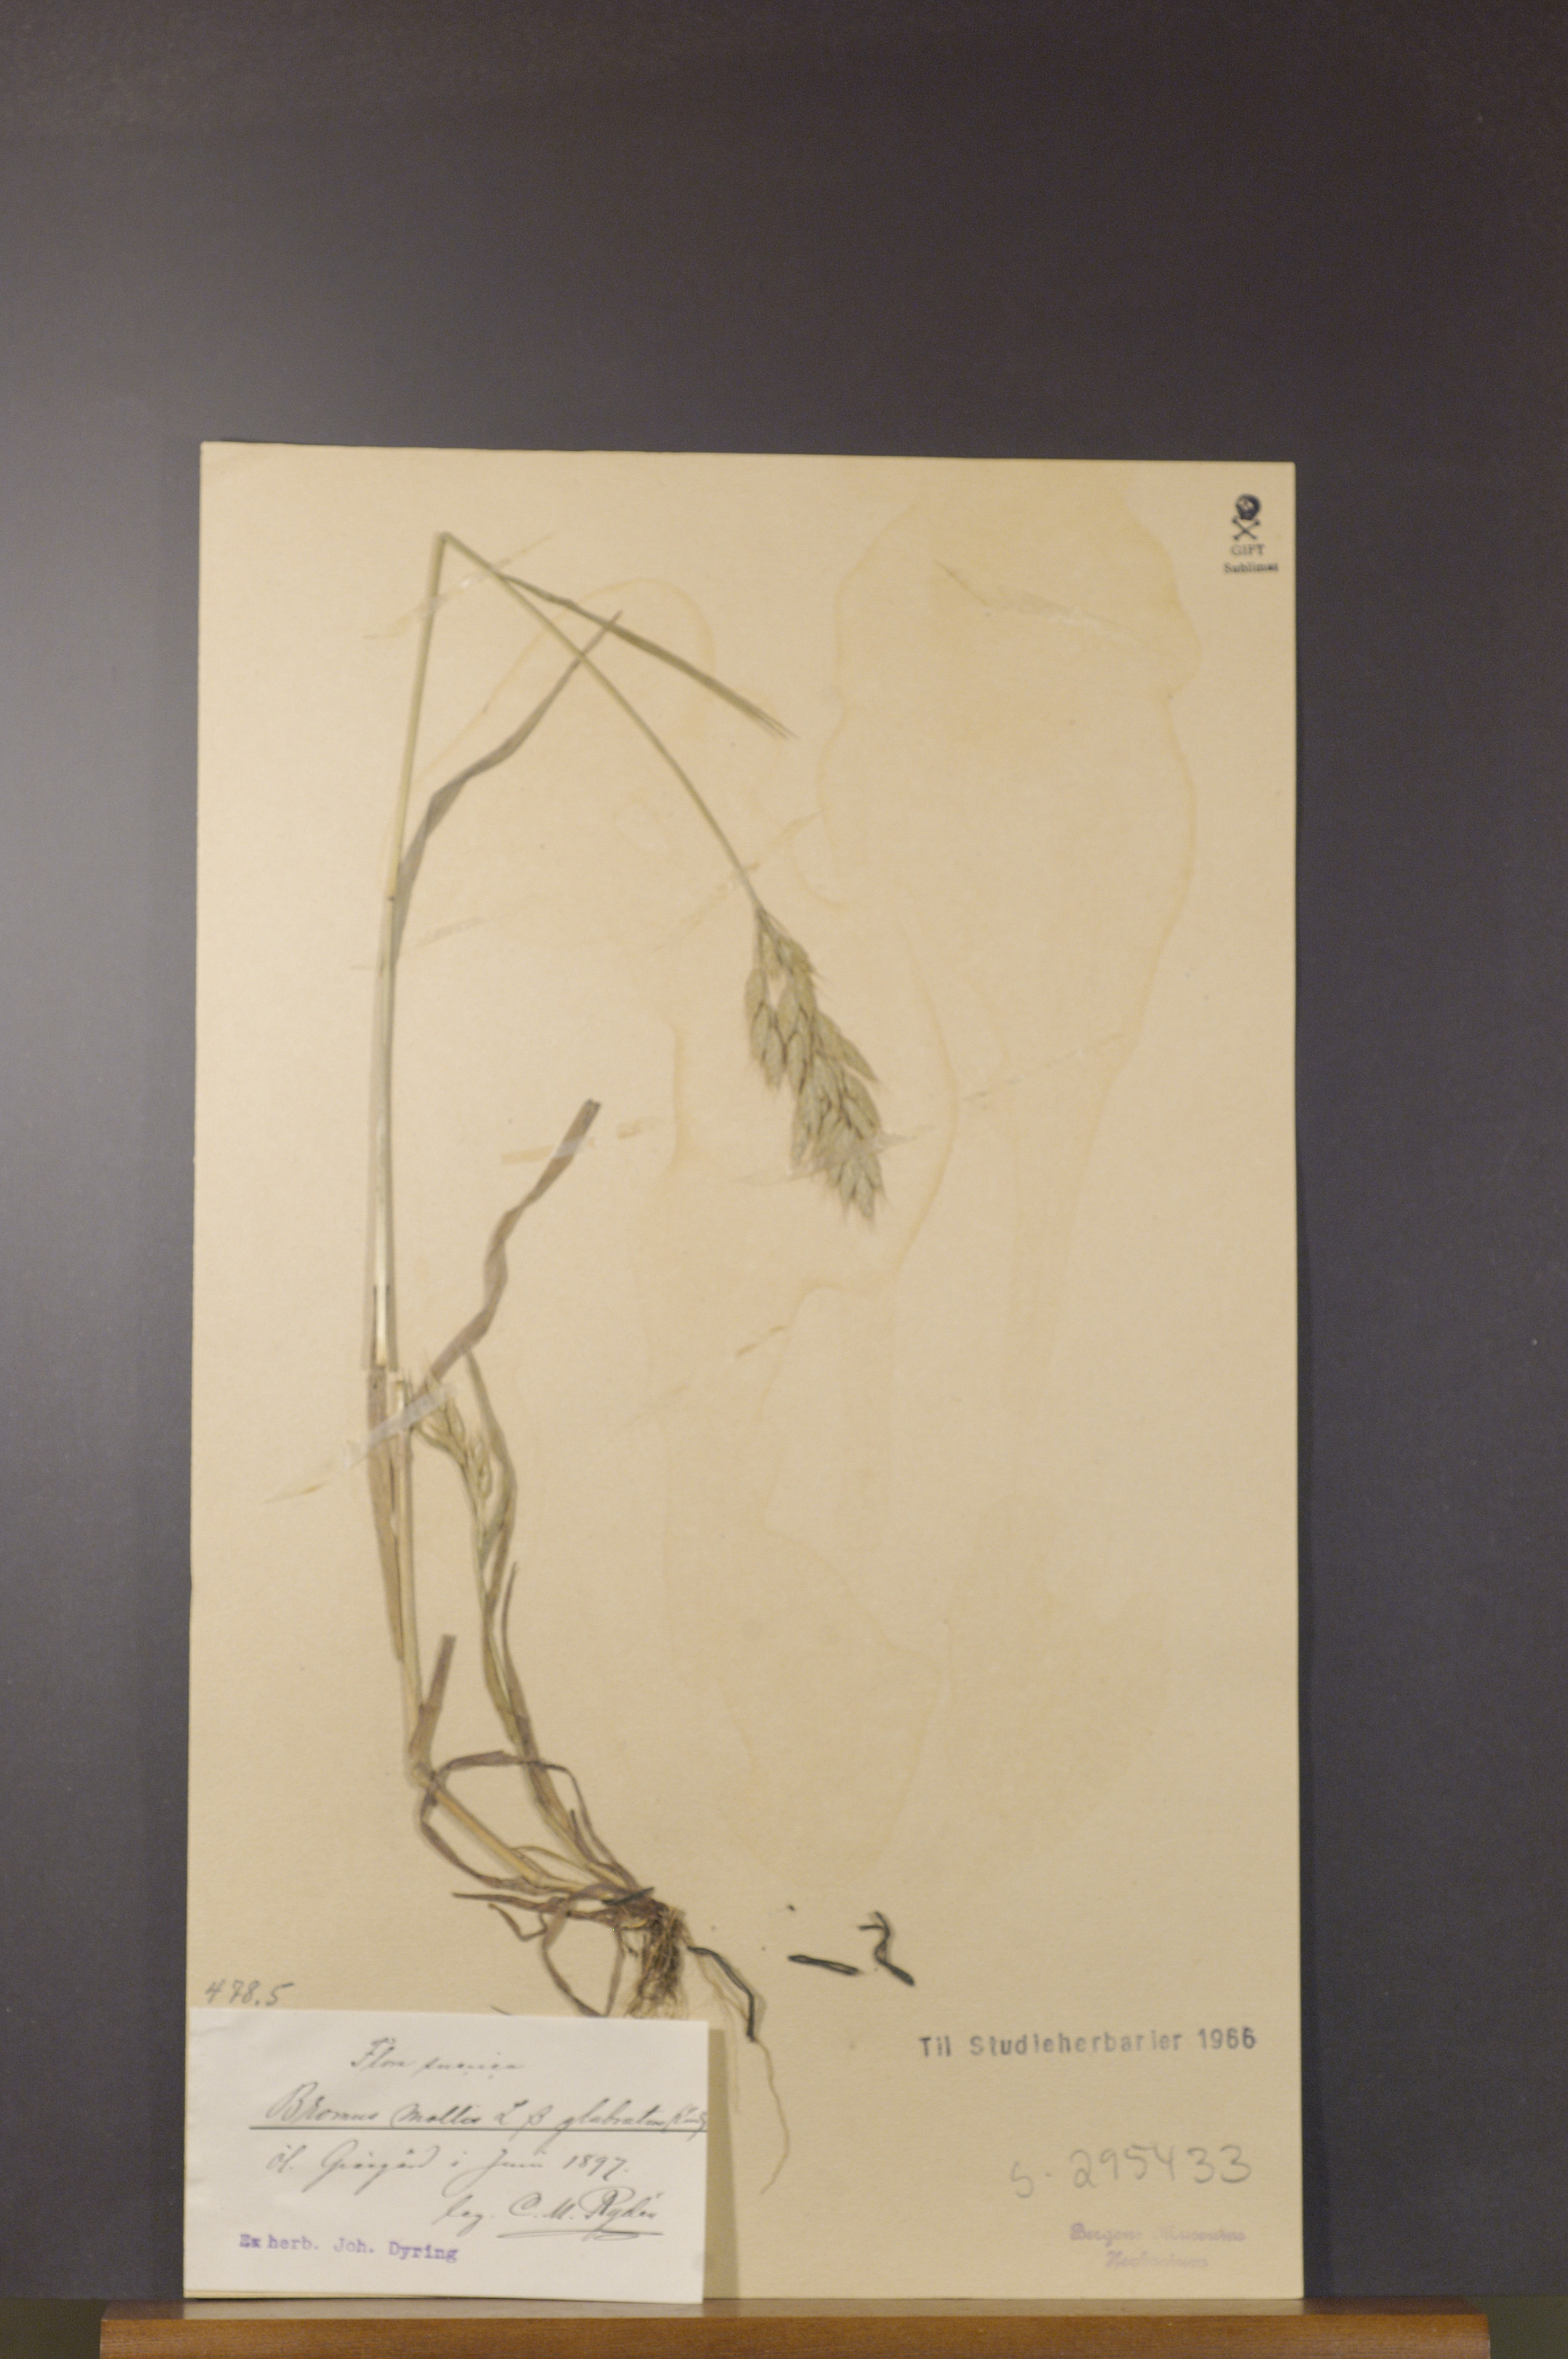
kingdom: Plantae
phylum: Tracheophyta
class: Liliopsida
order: Poales
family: Poaceae
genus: Bromus
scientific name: Bromus hordeaceus
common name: Soft brome
